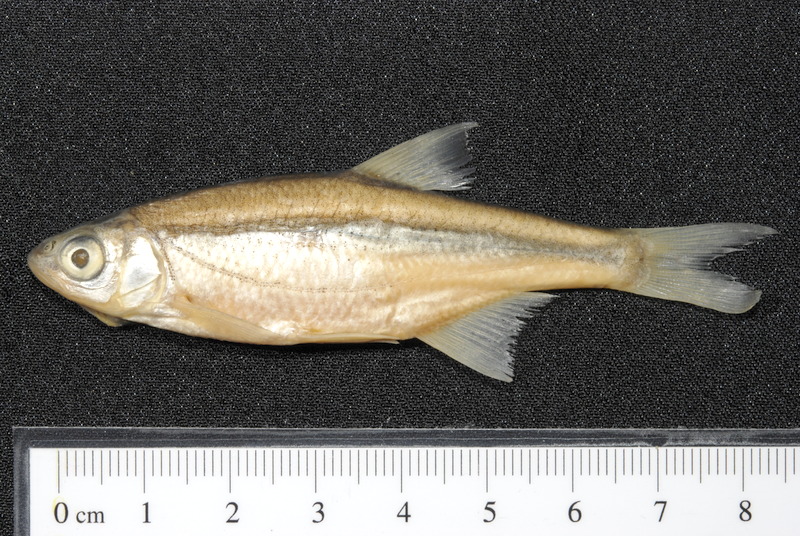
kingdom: Animalia
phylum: Chordata
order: Cypriniformes
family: Cyprinidae
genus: Alburnoides
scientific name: Alburnoides bipunctatus
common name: Spirlin
